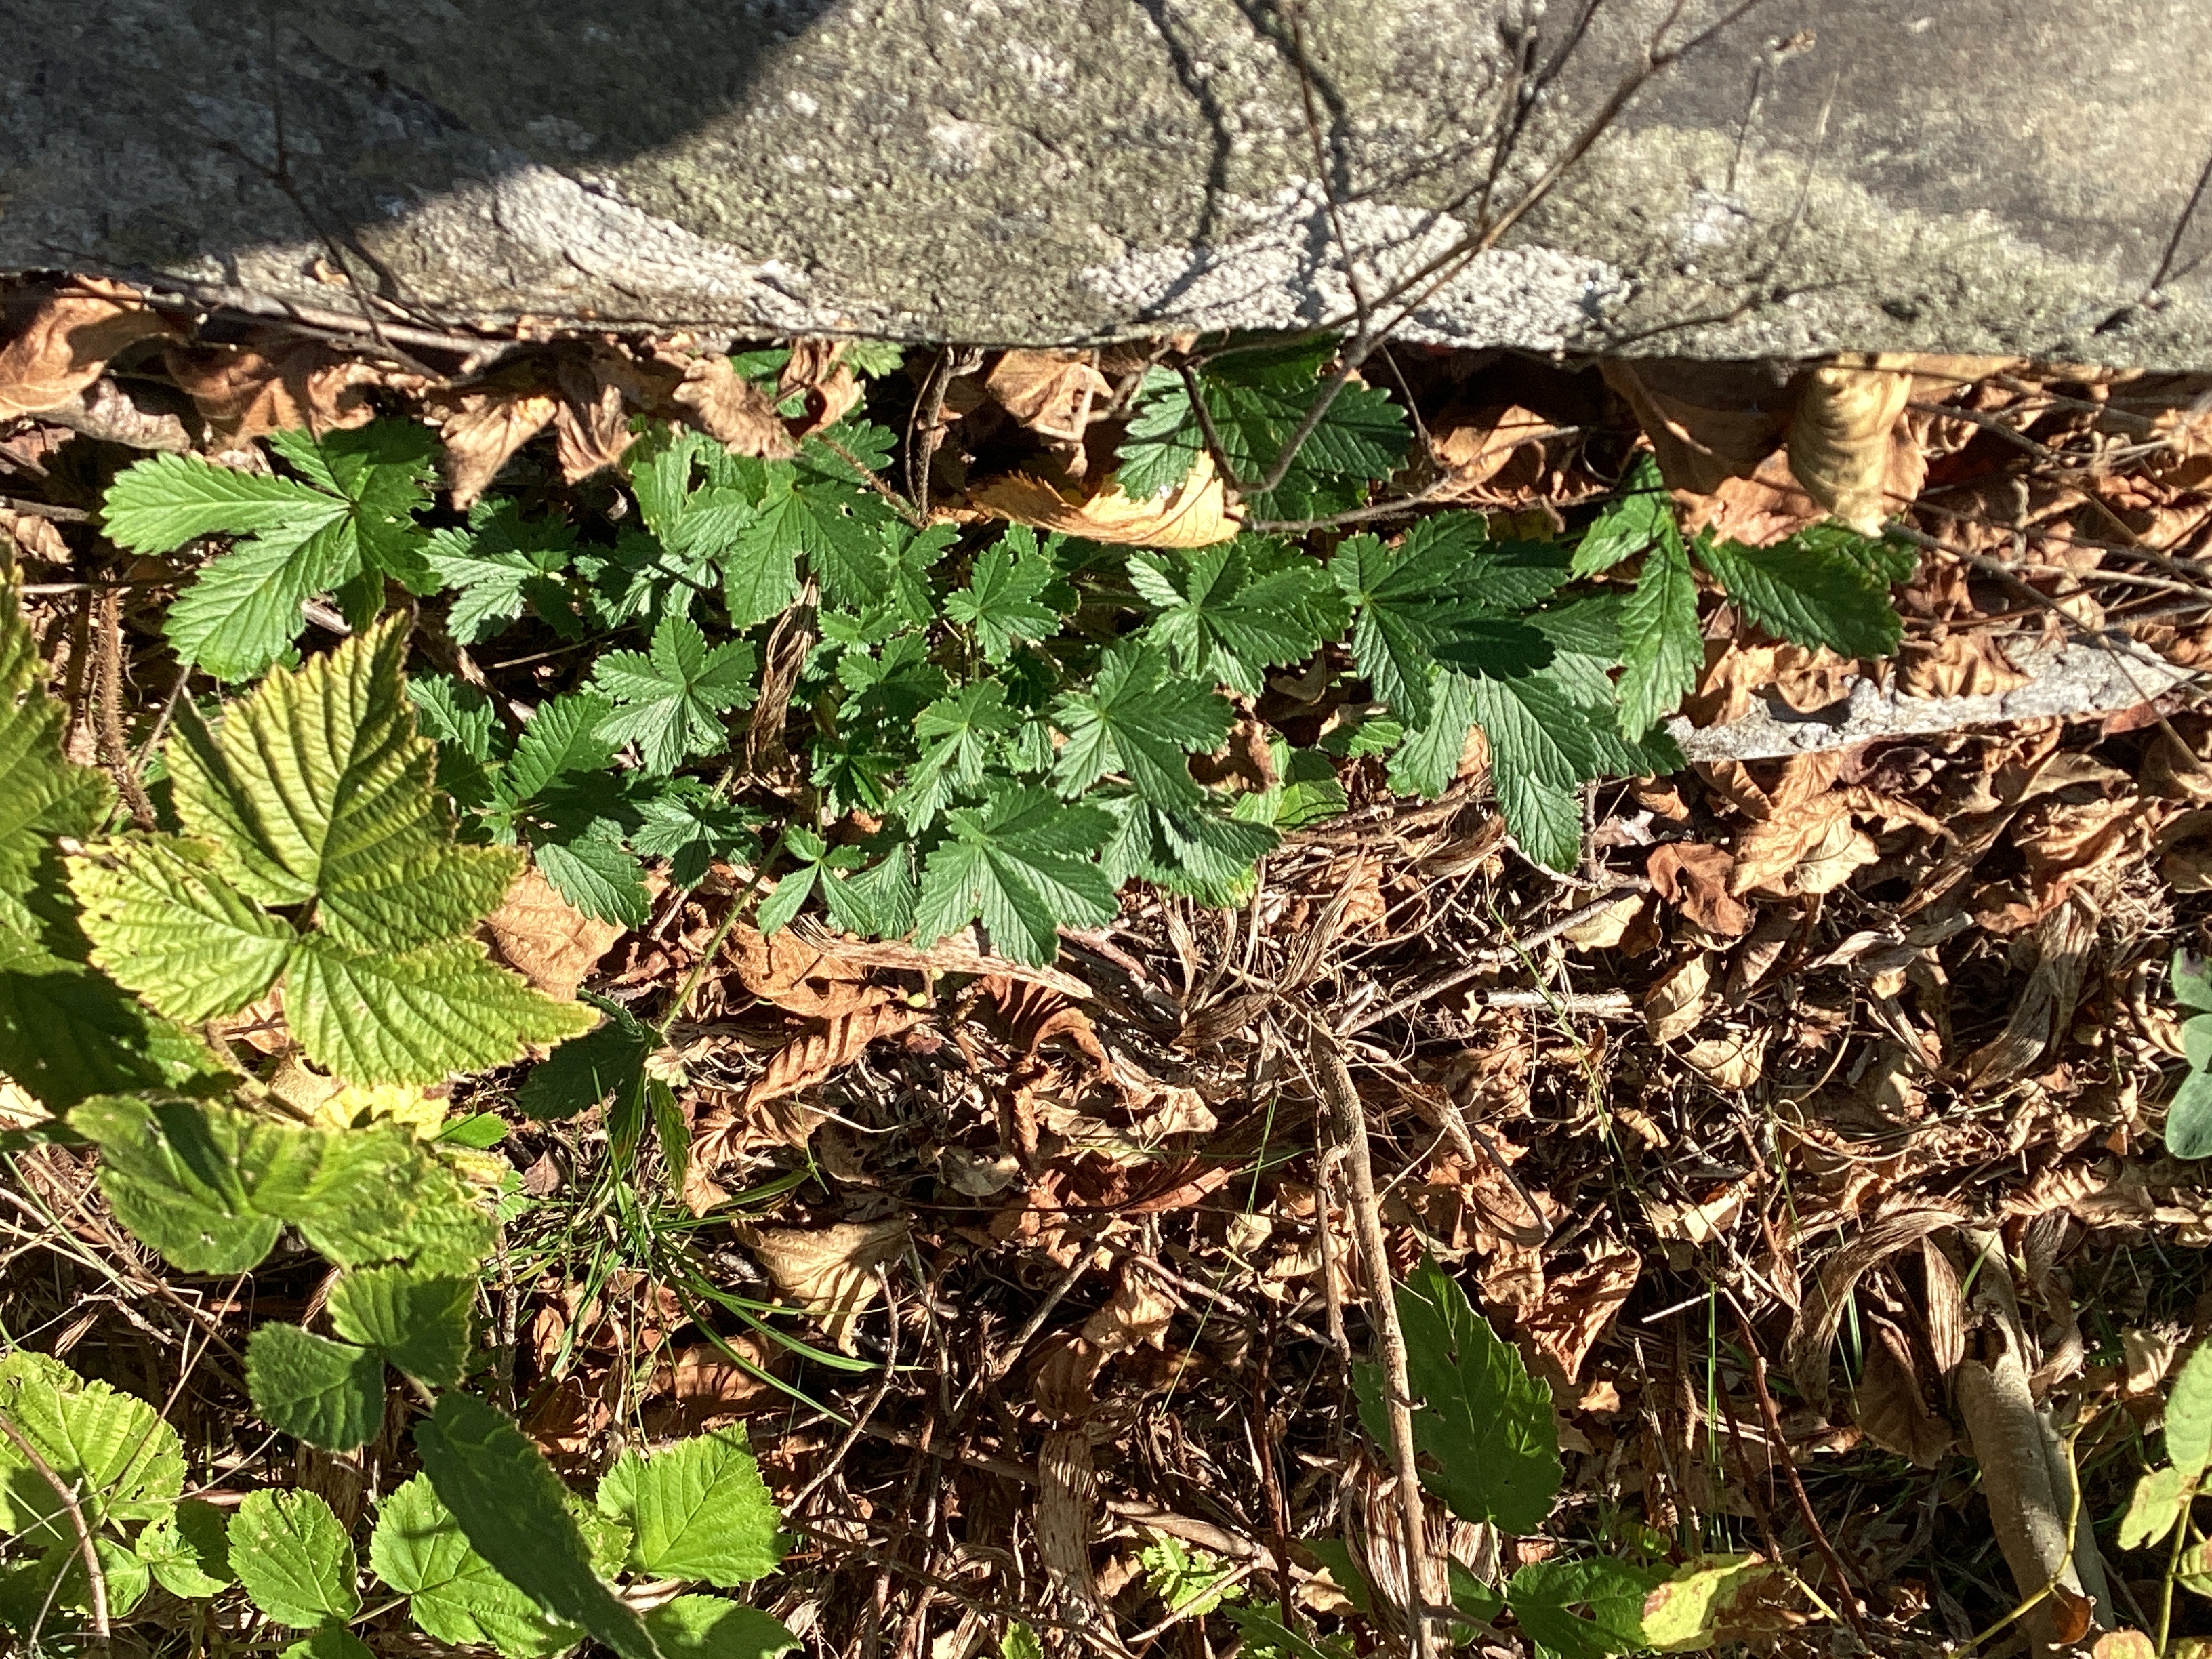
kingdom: Plantae
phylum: Tracheophyta
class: Magnoliopsida
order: Rosales
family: Rosaceae
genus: Potentilla
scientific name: Potentilla thuringiaca
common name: tysk mure
